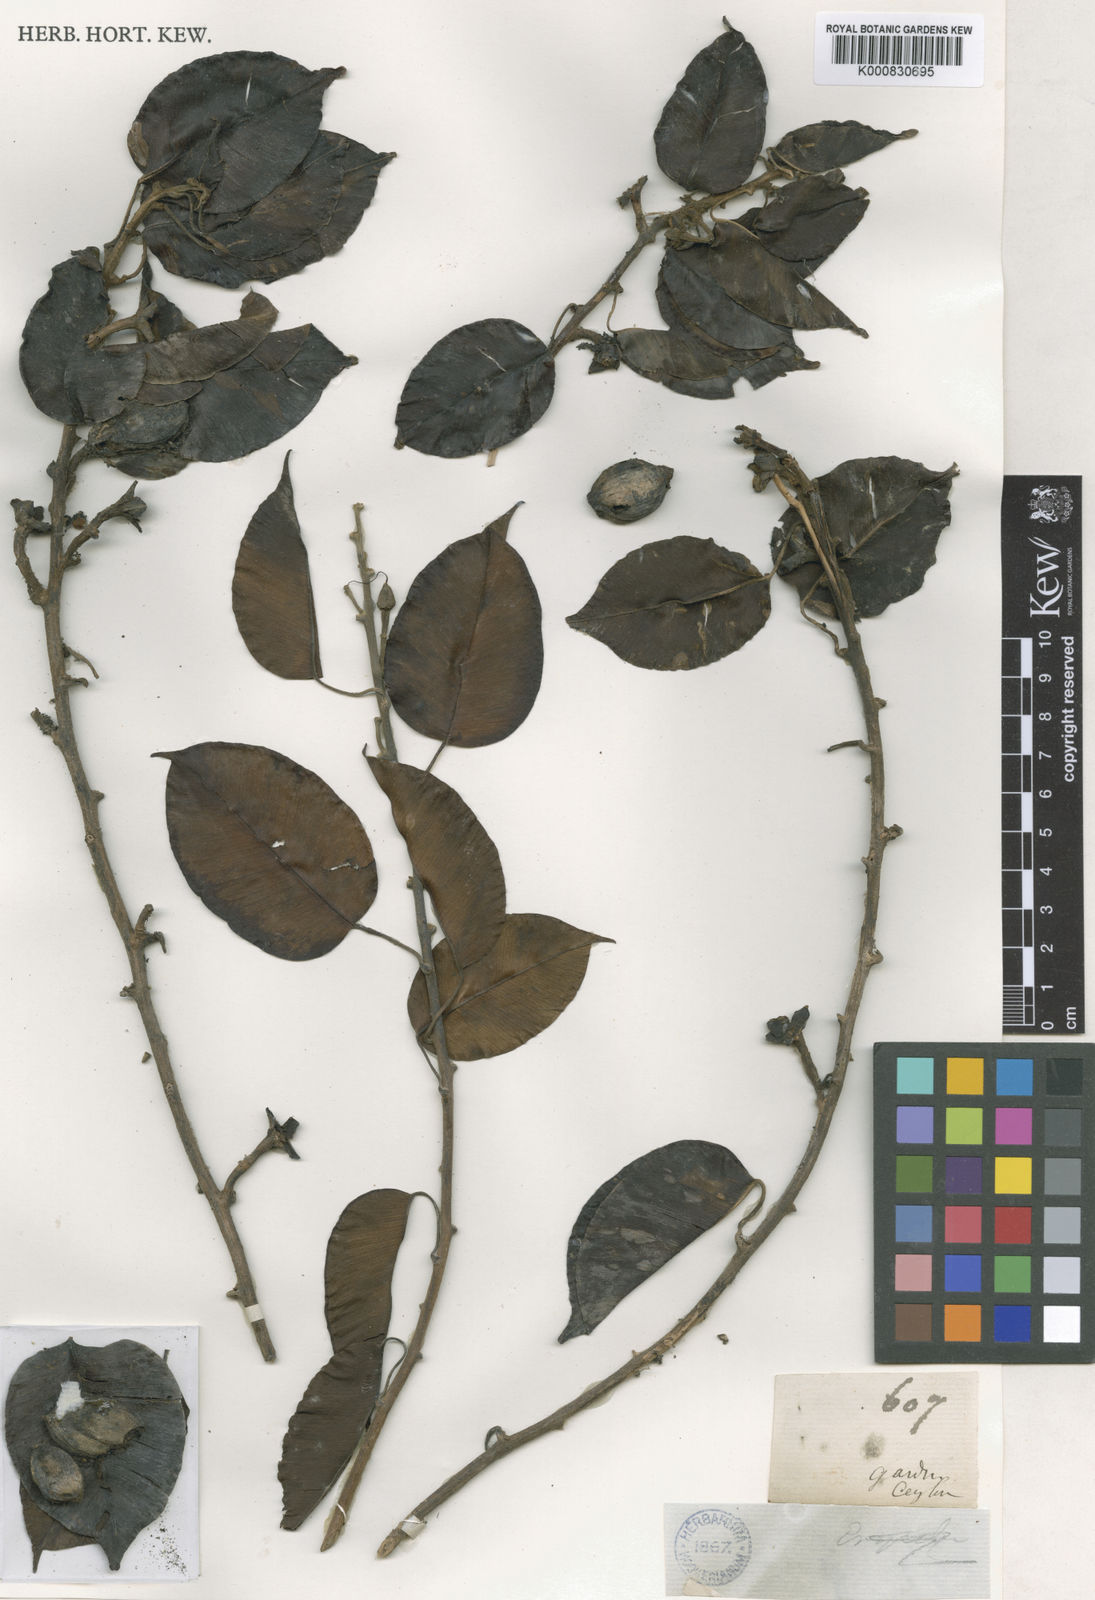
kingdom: Plantae
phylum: Tracheophyta
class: Magnoliopsida
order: Solanales
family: Convolvulaceae
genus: Argyreia
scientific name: Argyreia hancorniifolia
